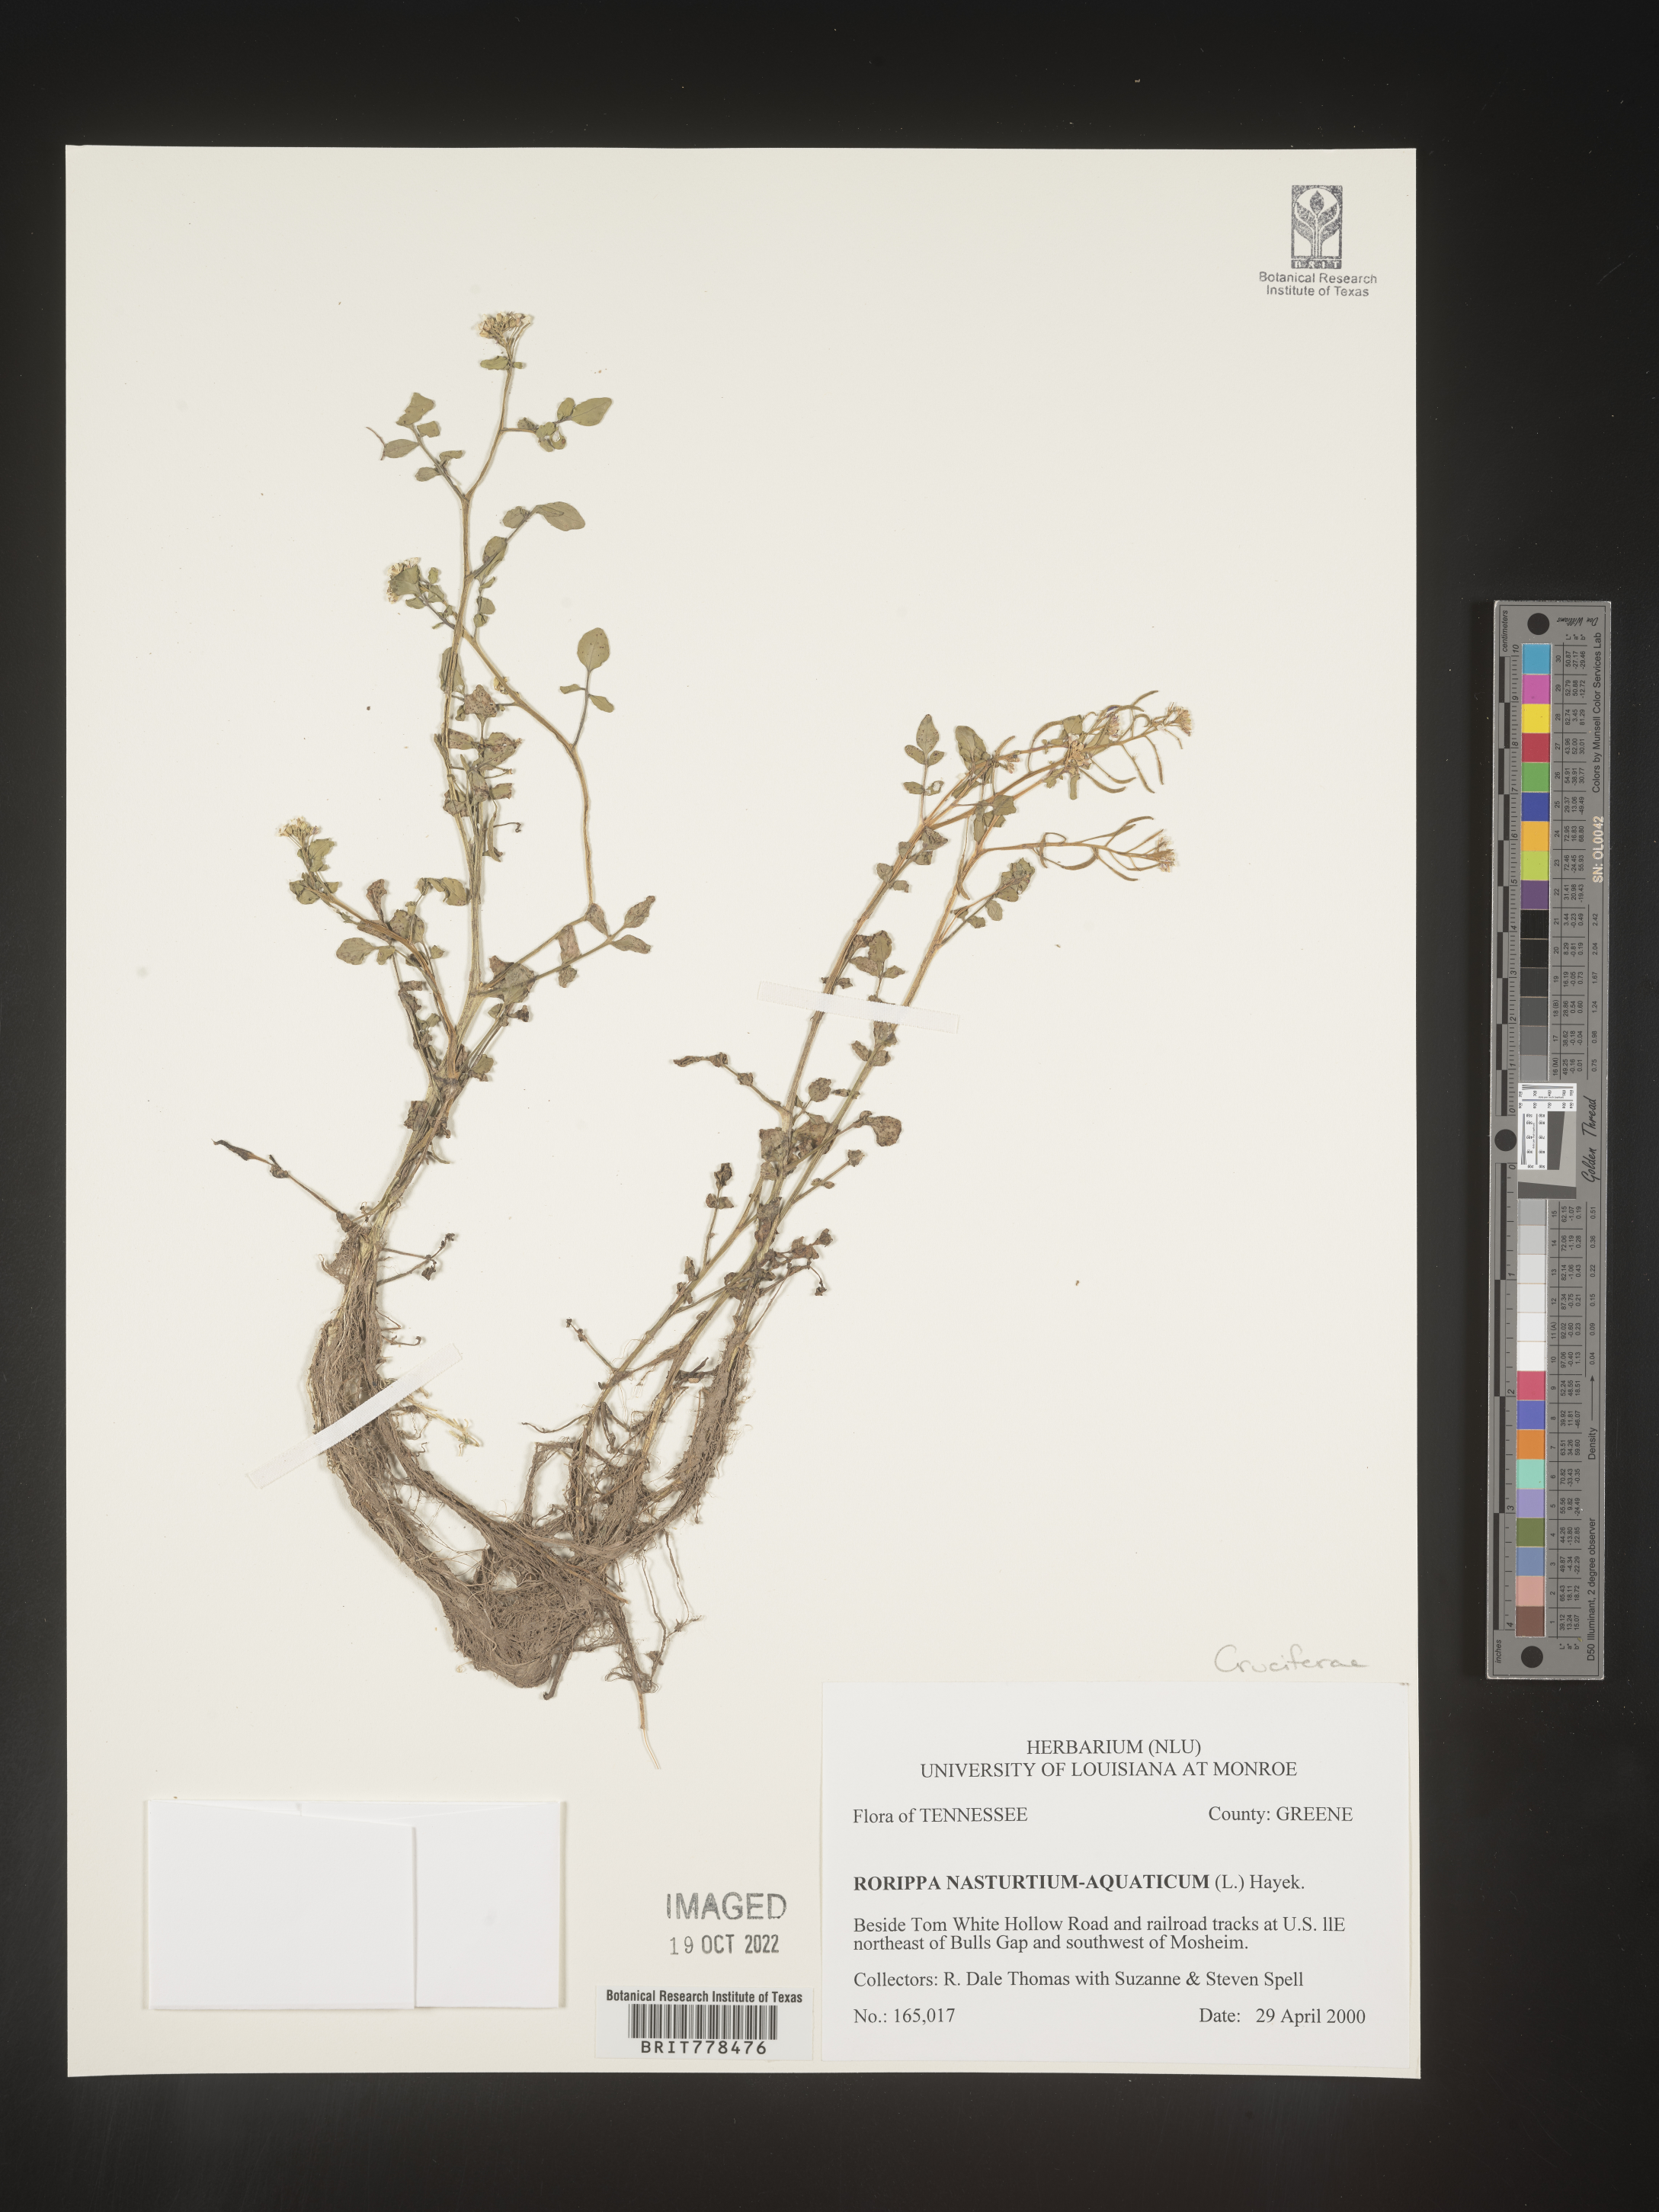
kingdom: Plantae
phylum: Tracheophyta
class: Magnoliopsida
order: Brassicales
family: Brassicaceae
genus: Nasturtium
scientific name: Nasturtium officinale
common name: Watercress
